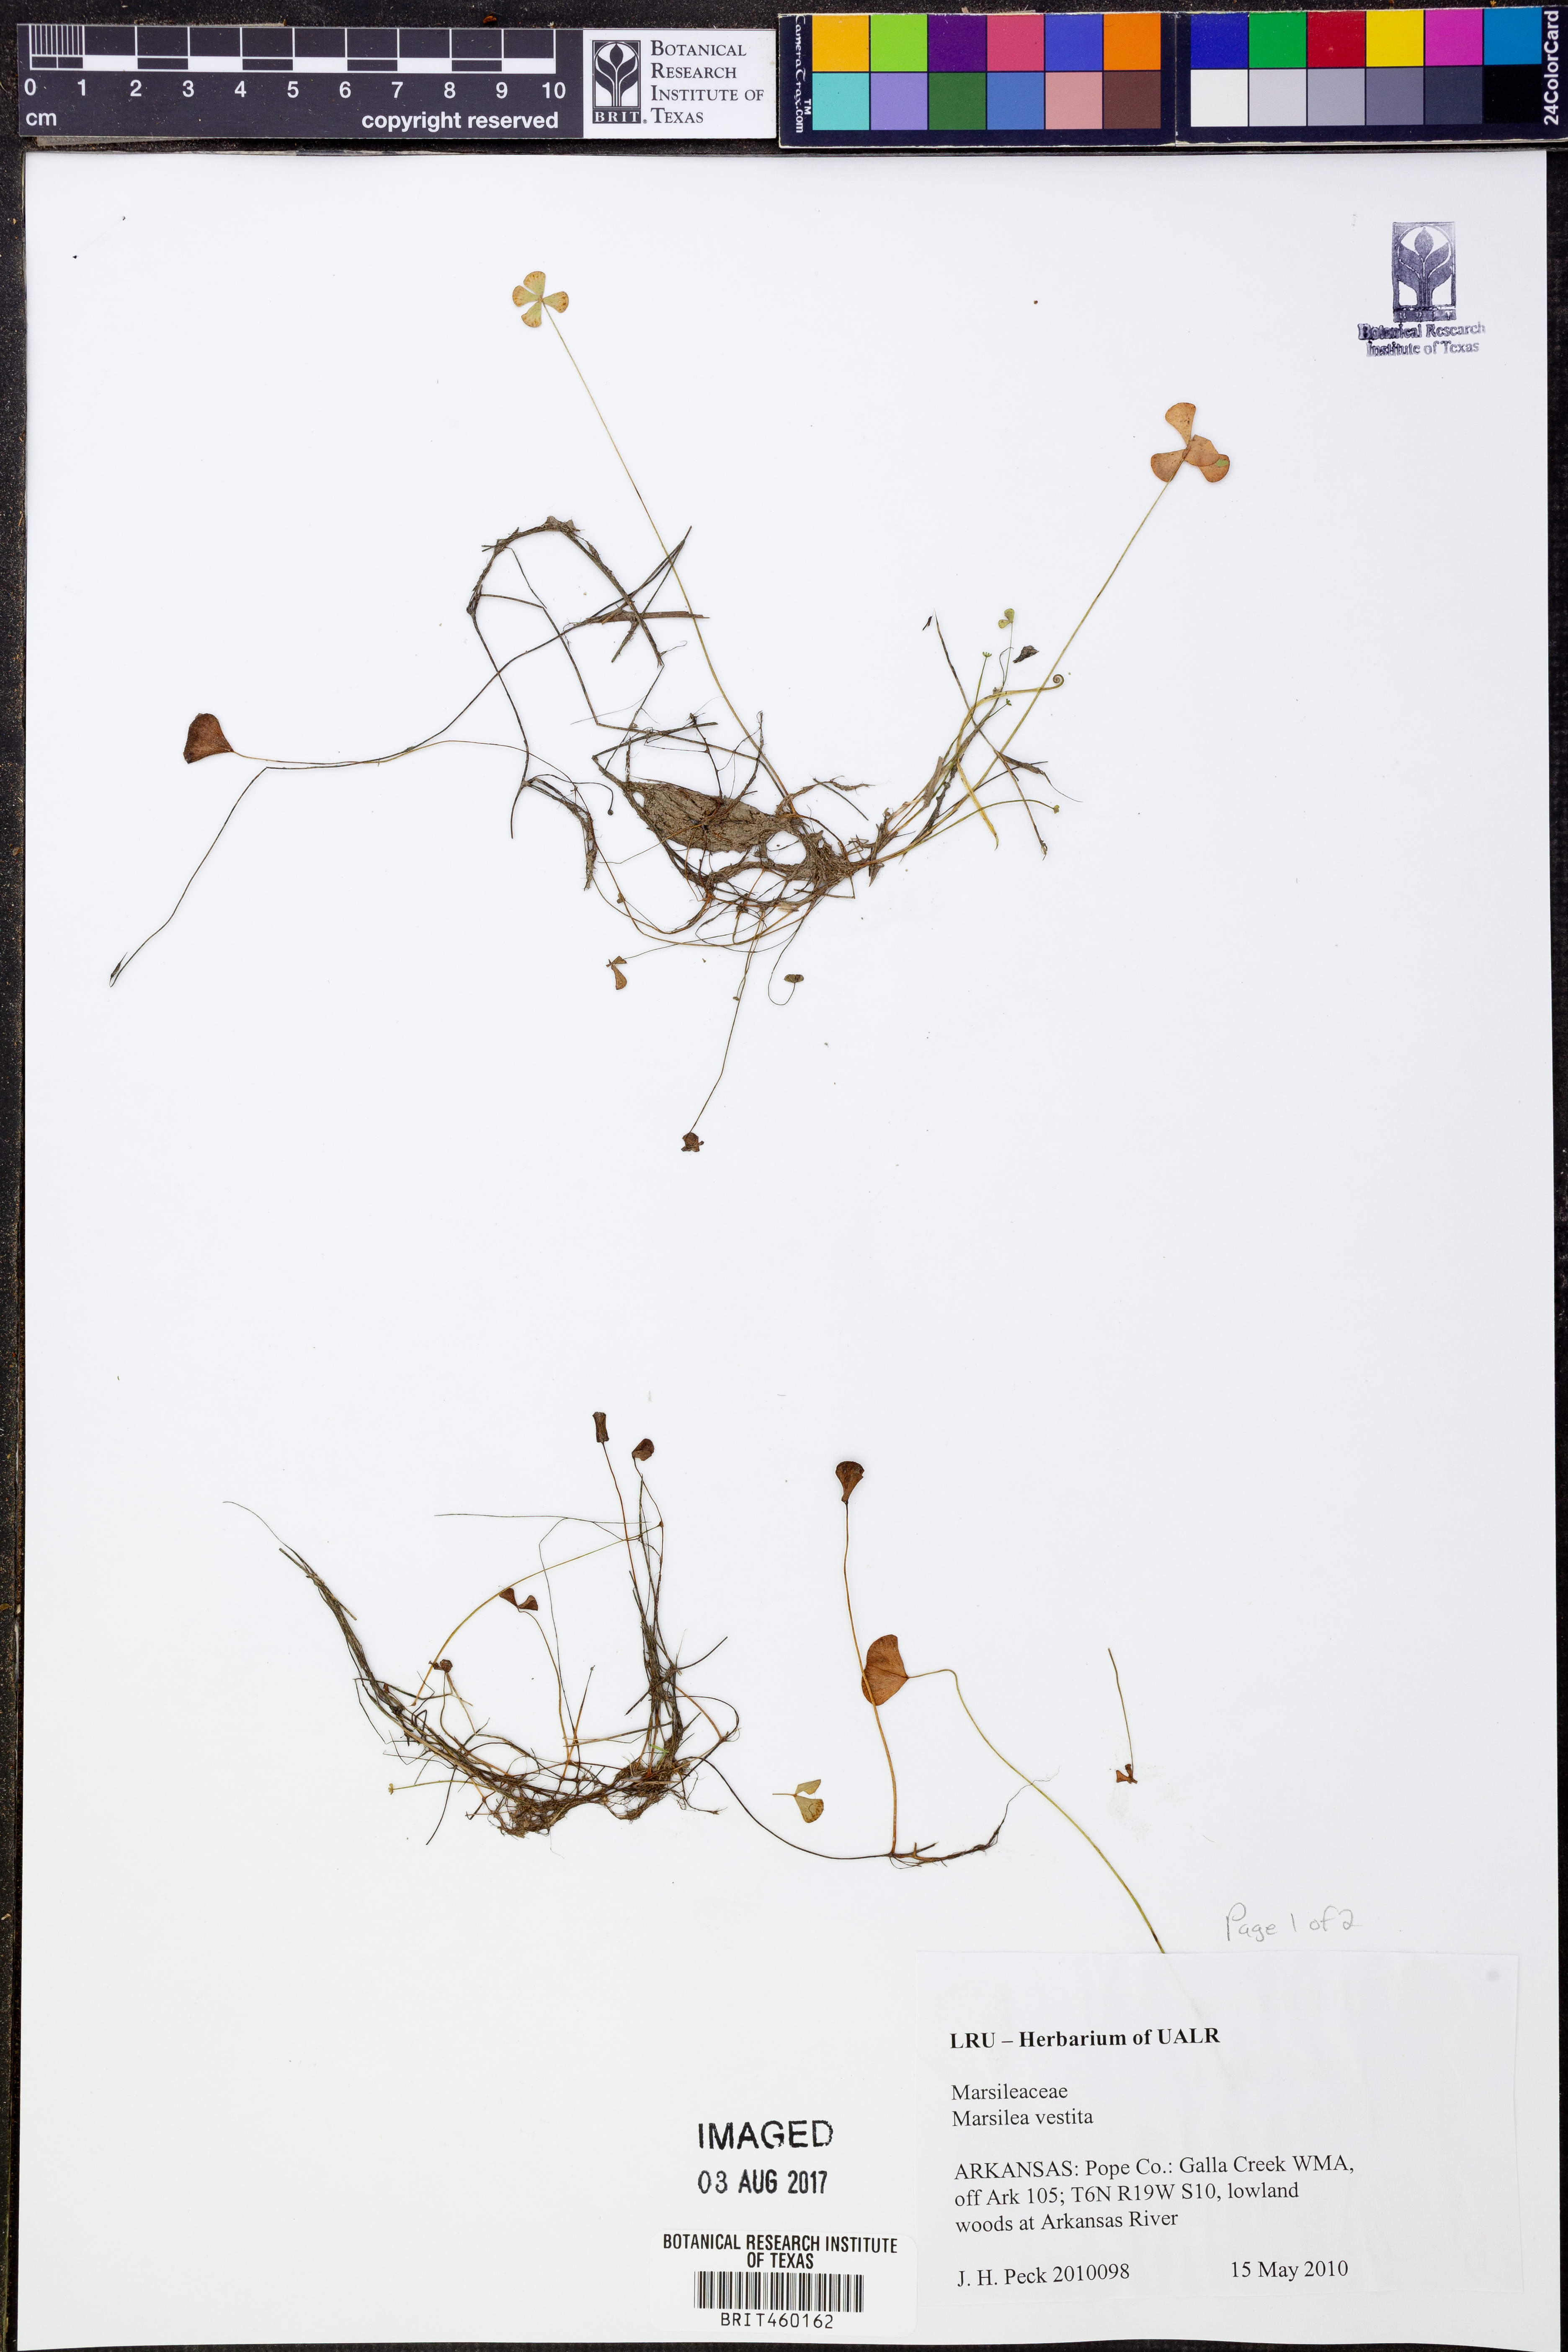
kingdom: Plantae
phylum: Tracheophyta
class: Polypodiopsida
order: Salviniales
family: Marsileaceae
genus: Marsilea
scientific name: Marsilea vestita
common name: Hooked-pepperwort
